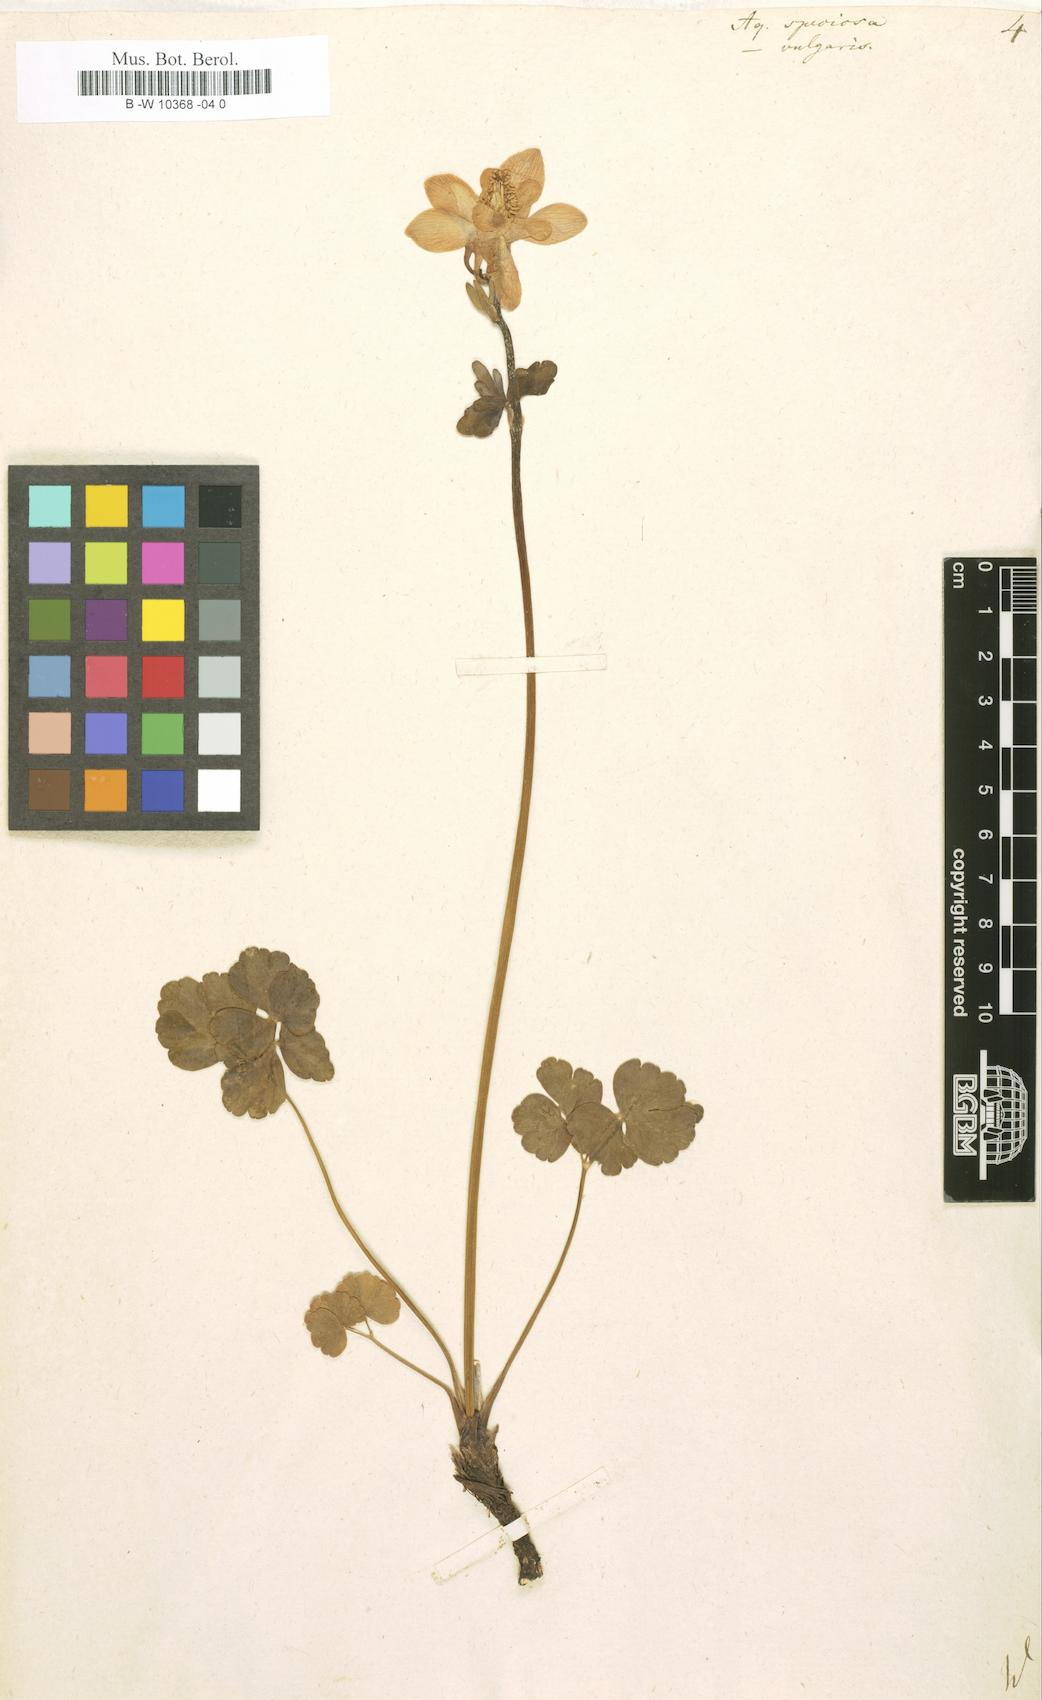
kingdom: Plantae
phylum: Tracheophyta
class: Magnoliopsida
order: Ranunculales
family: Ranunculaceae
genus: Aquilegia
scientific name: Aquilegia
